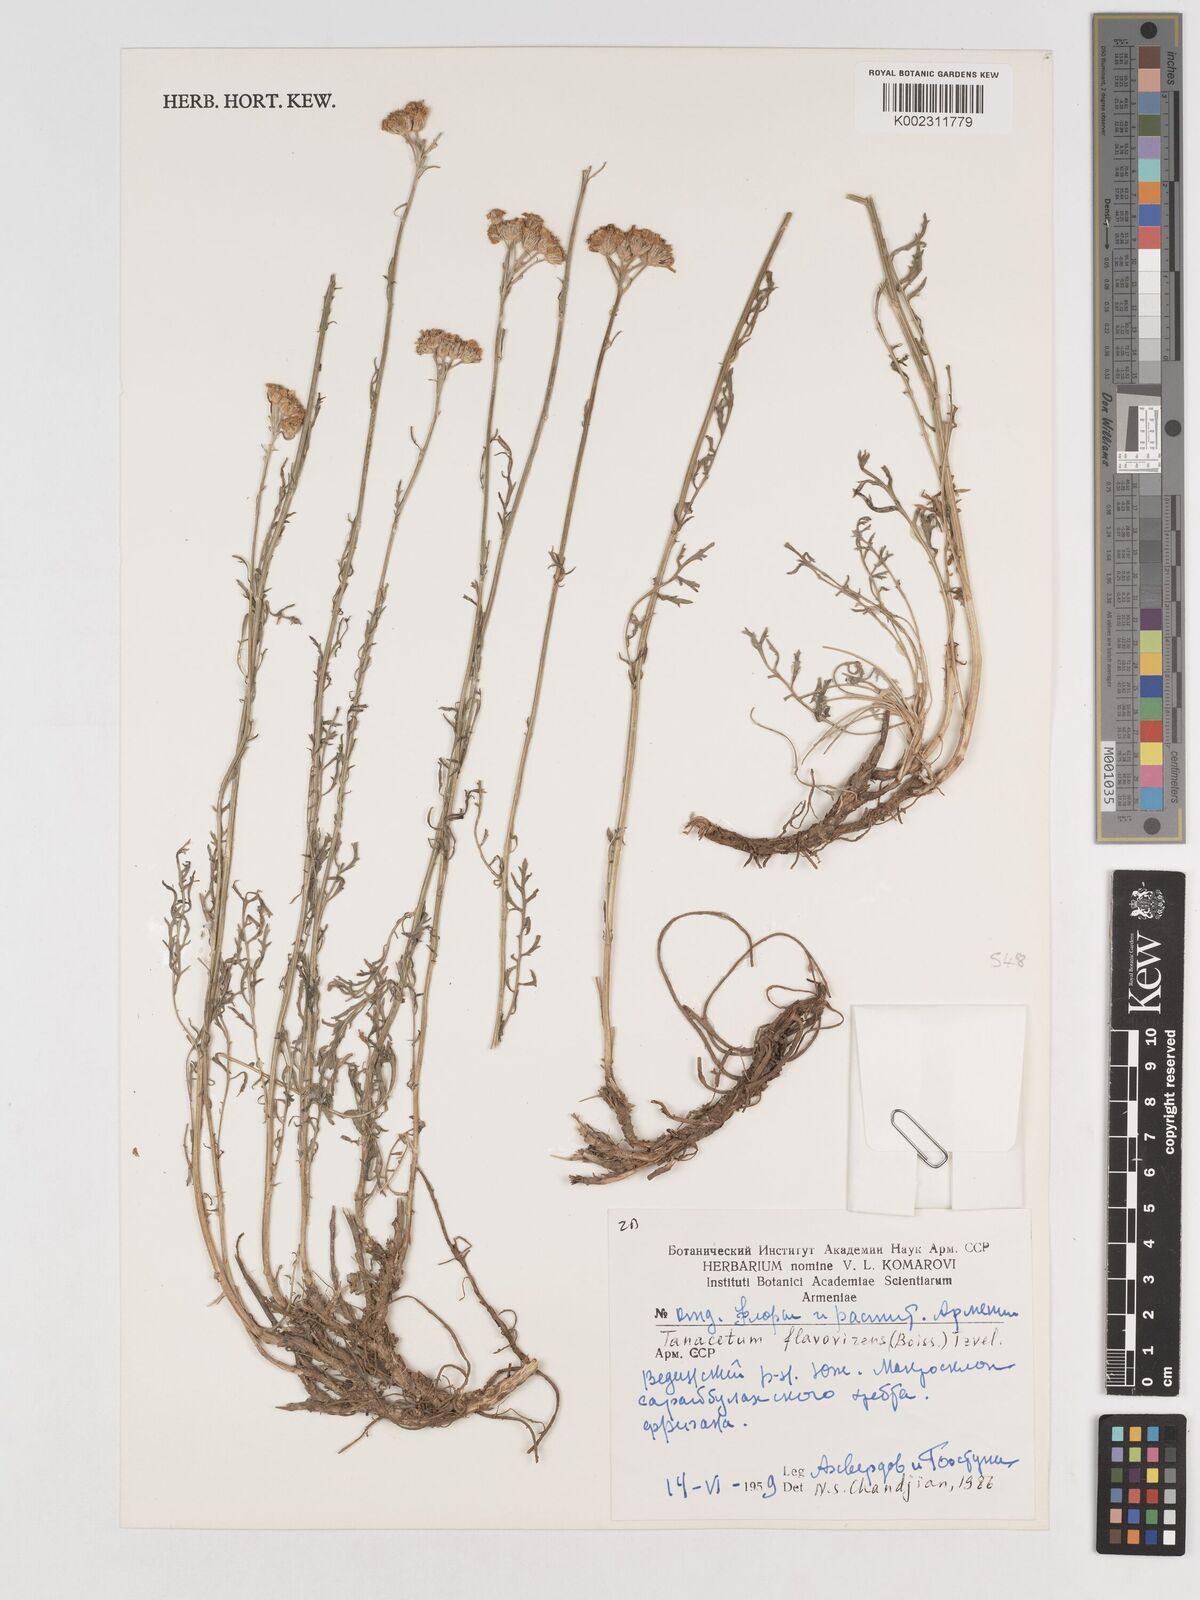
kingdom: Plantae
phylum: Tracheophyta
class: Magnoliopsida
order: Asterales
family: Asteraceae
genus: Tanacetum
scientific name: Tanacetum pinnatum
